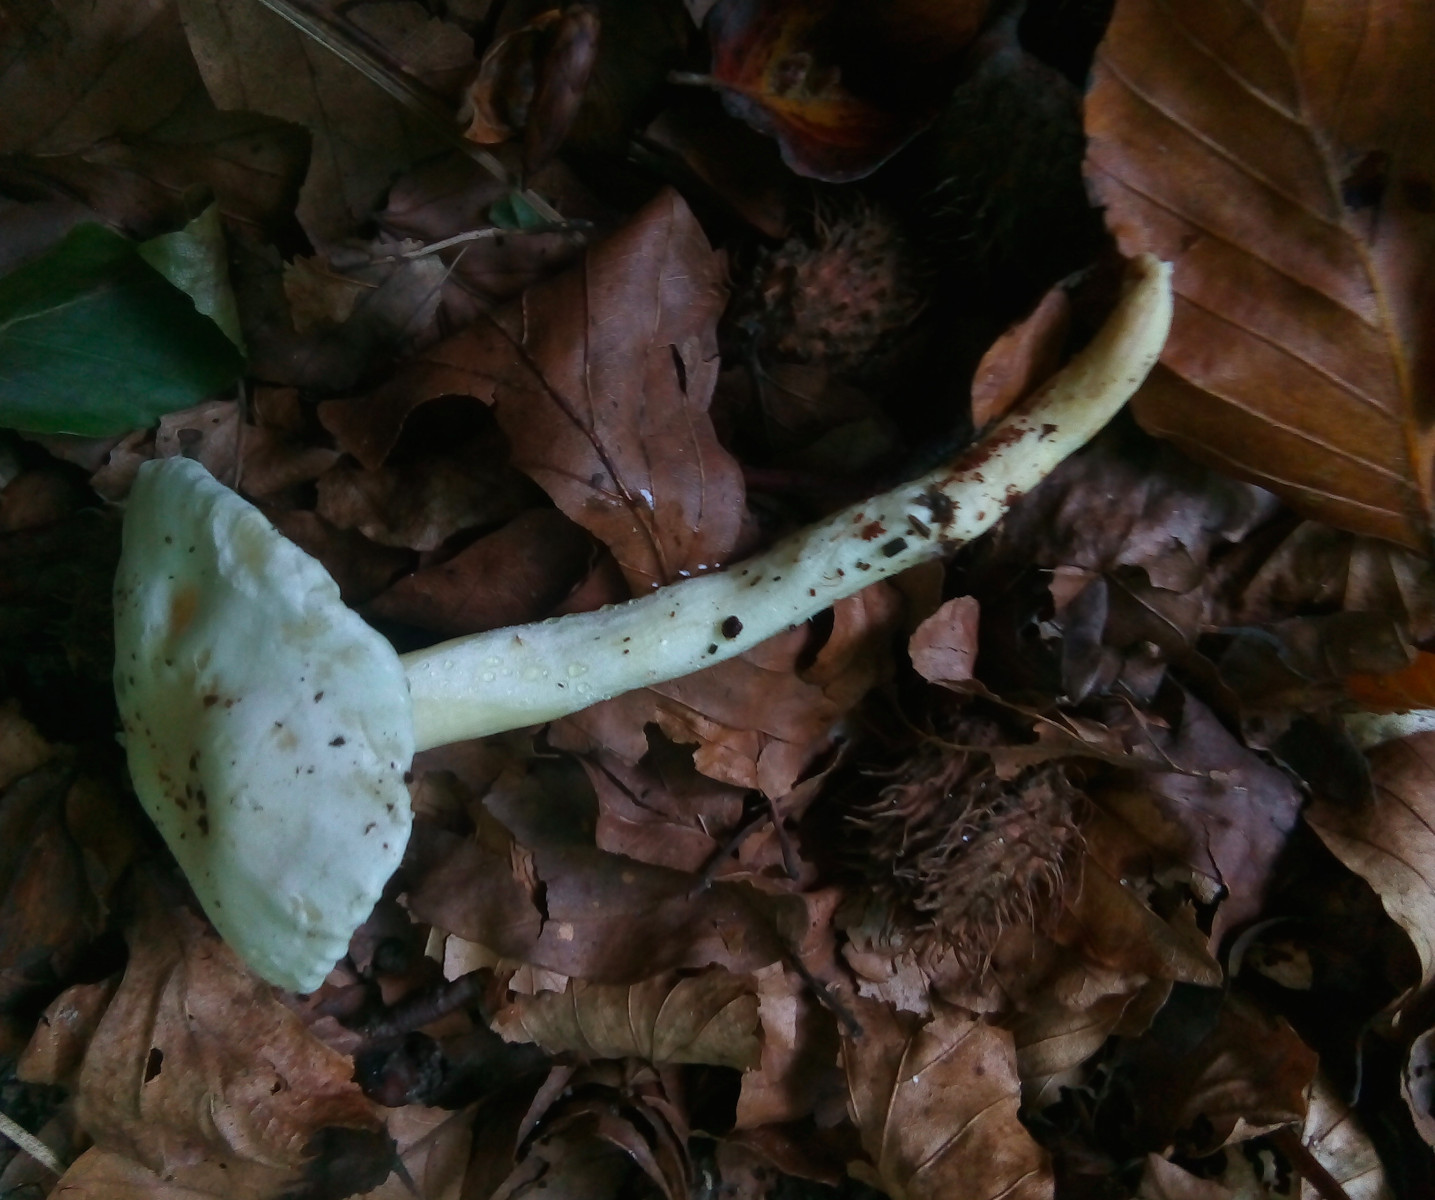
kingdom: Fungi
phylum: Basidiomycota
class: Agaricomycetes
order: Agaricales
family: Hygrophoraceae
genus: Hygrophorus
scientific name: Hygrophorus
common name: sneglehat
